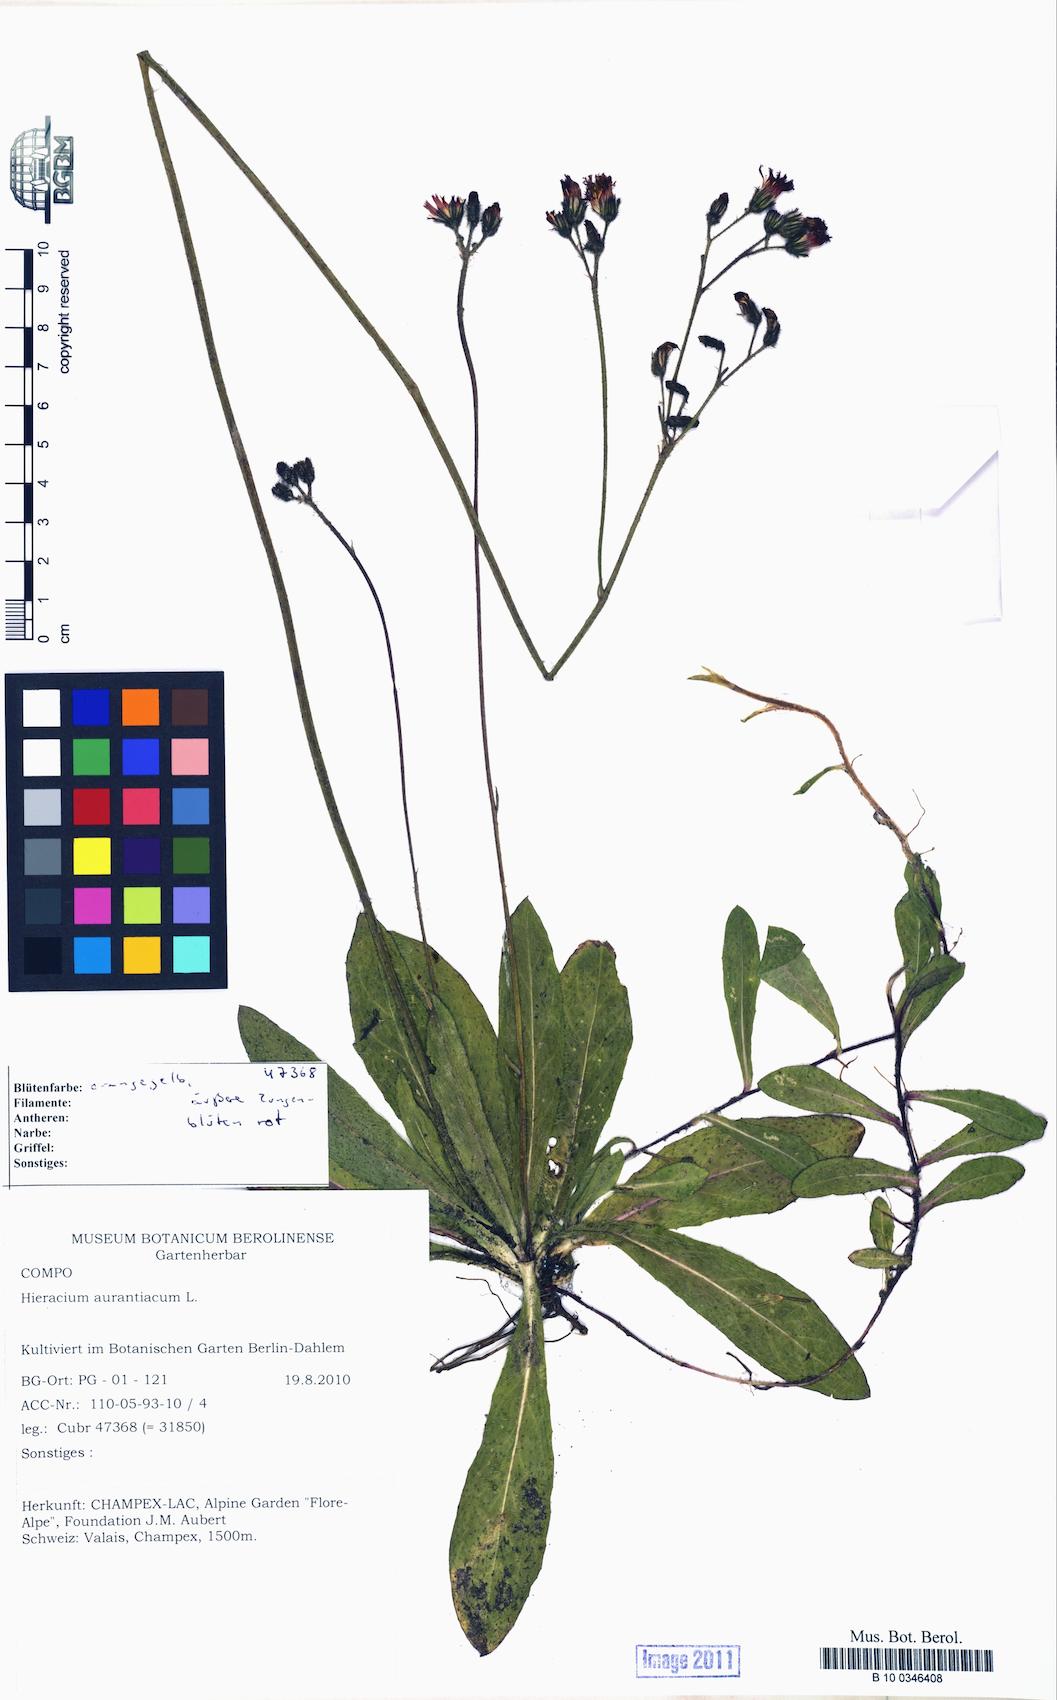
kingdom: Plantae
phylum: Tracheophyta
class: Magnoliopsida
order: Asterales
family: Asteraceae
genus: Pilosella
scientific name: Pilosella aurantiaca
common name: Fox-and-cubs
